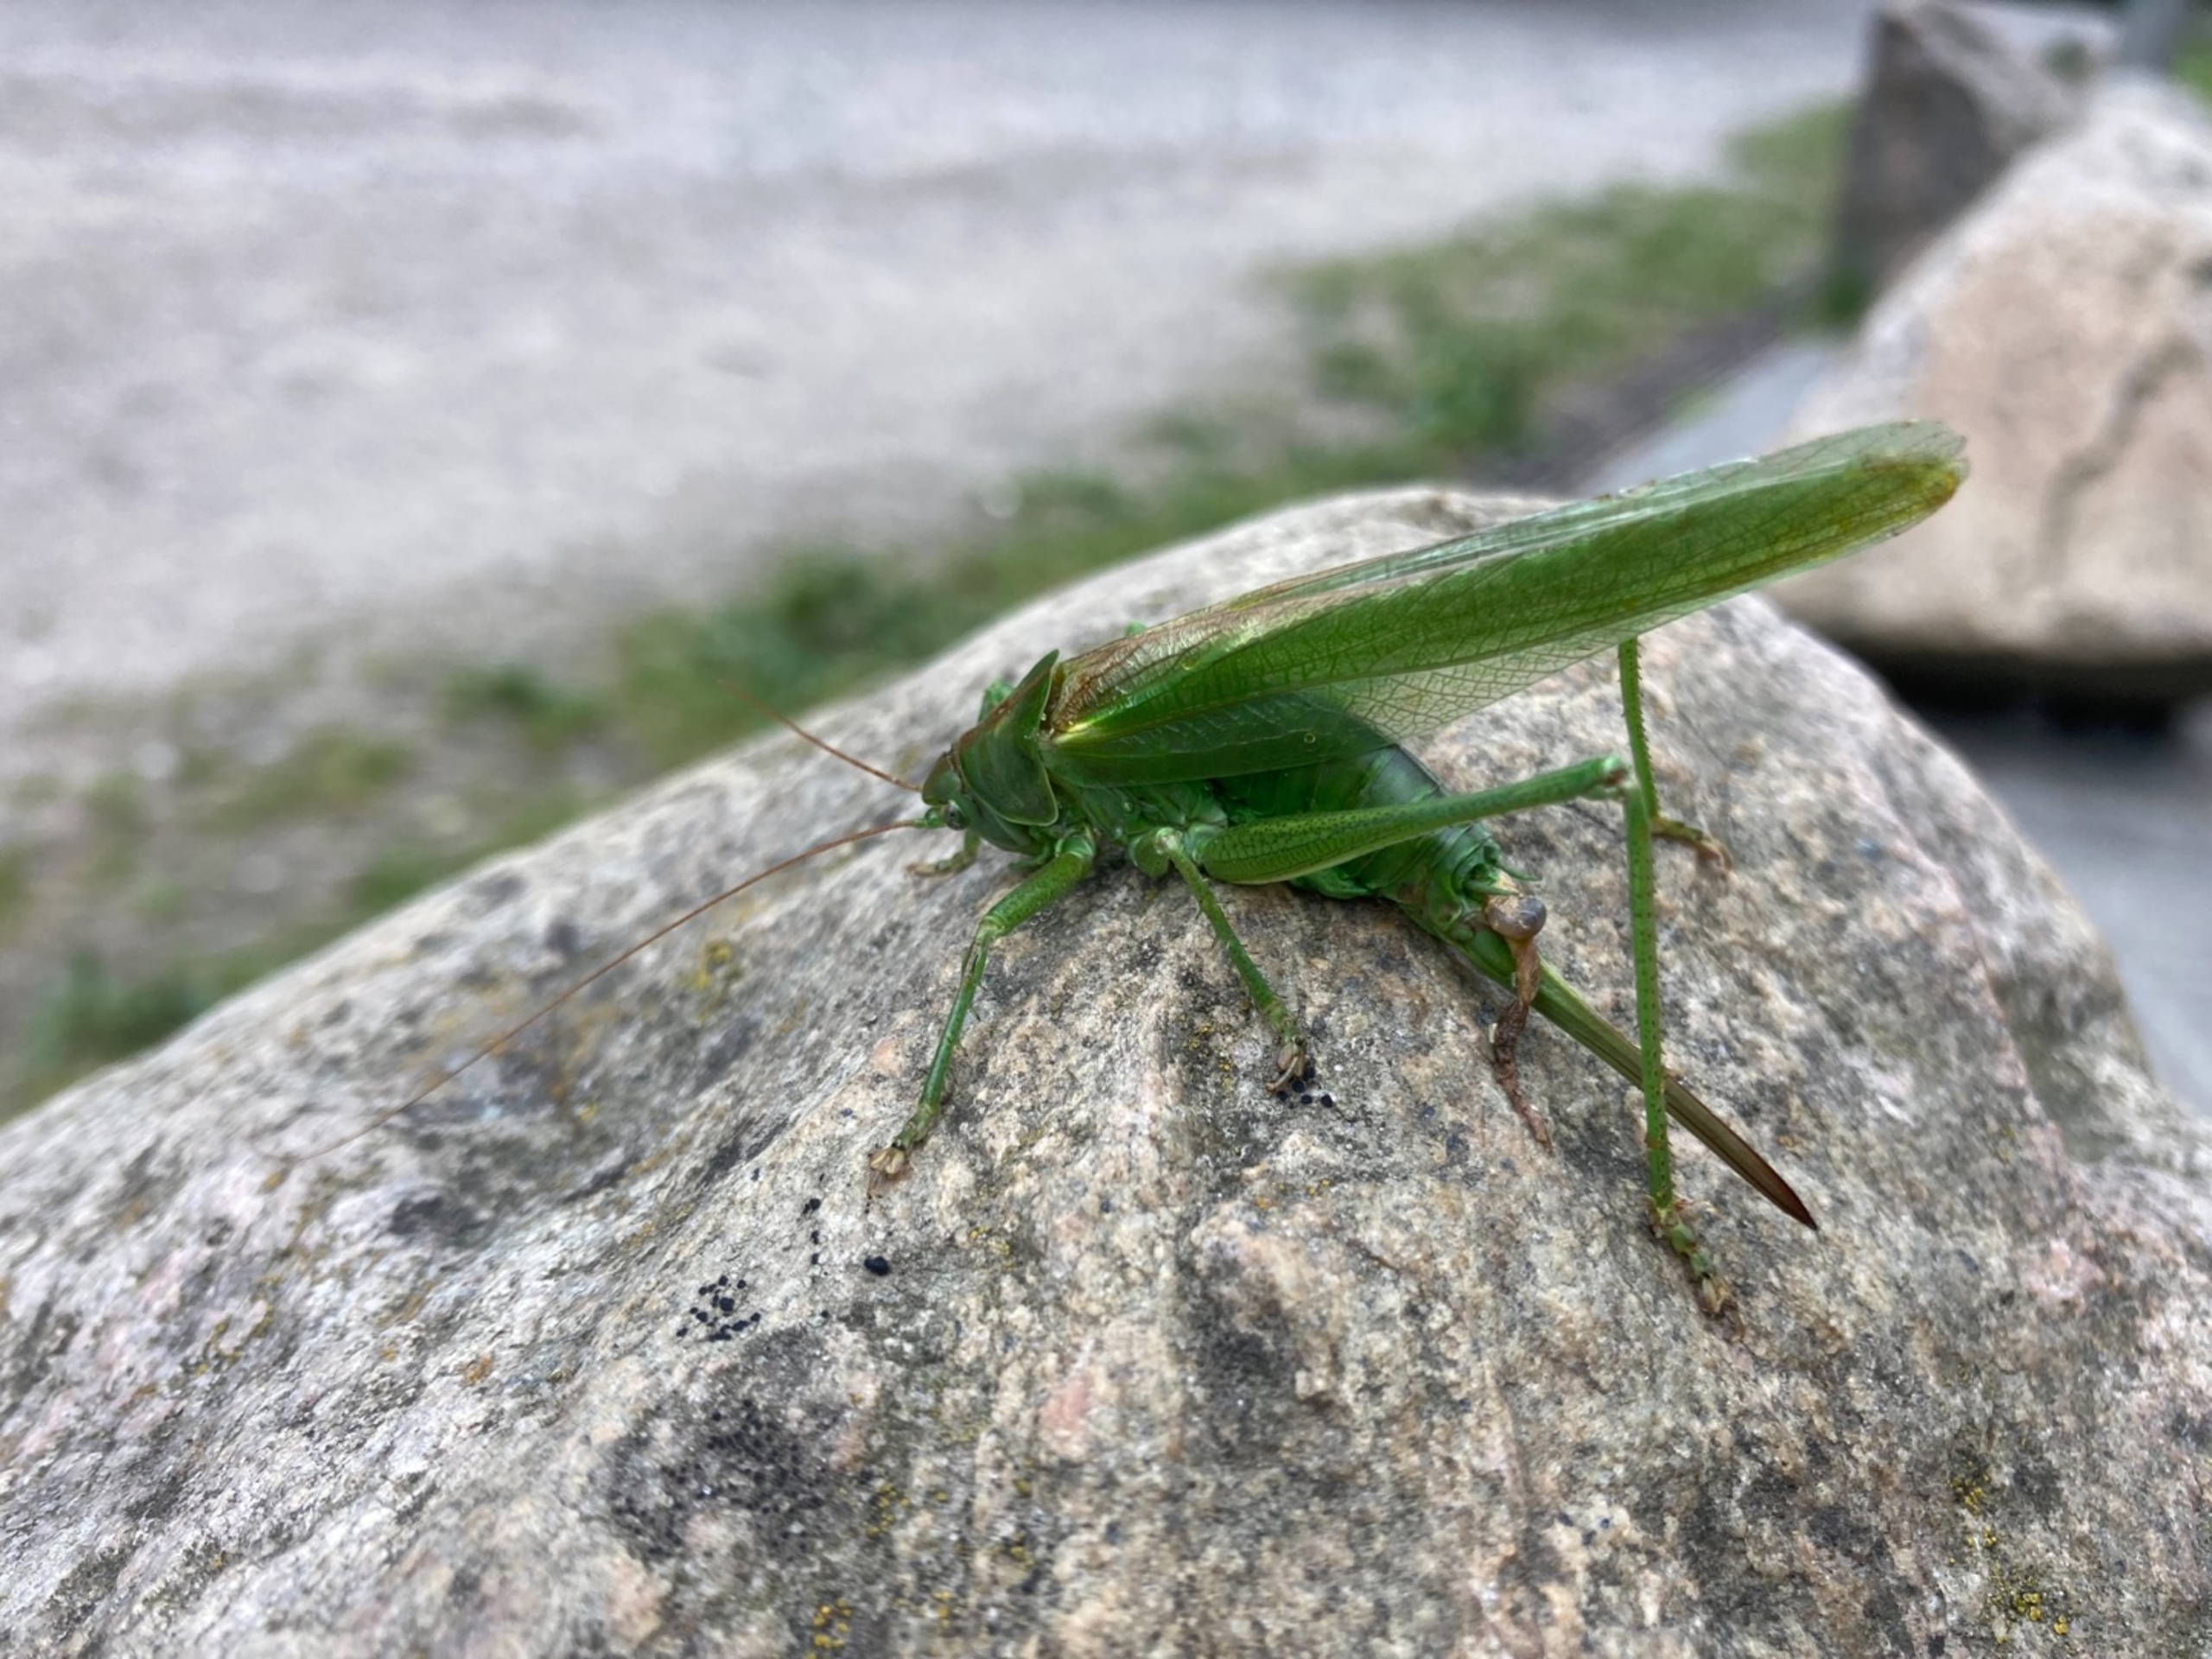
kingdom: Animalia
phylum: Arthropoda
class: Insecta
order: Orthoptera
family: Tettigoniidae
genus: Tettigonia
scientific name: Tettigonia viridissima
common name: Stor grøn løvgræshoppe
